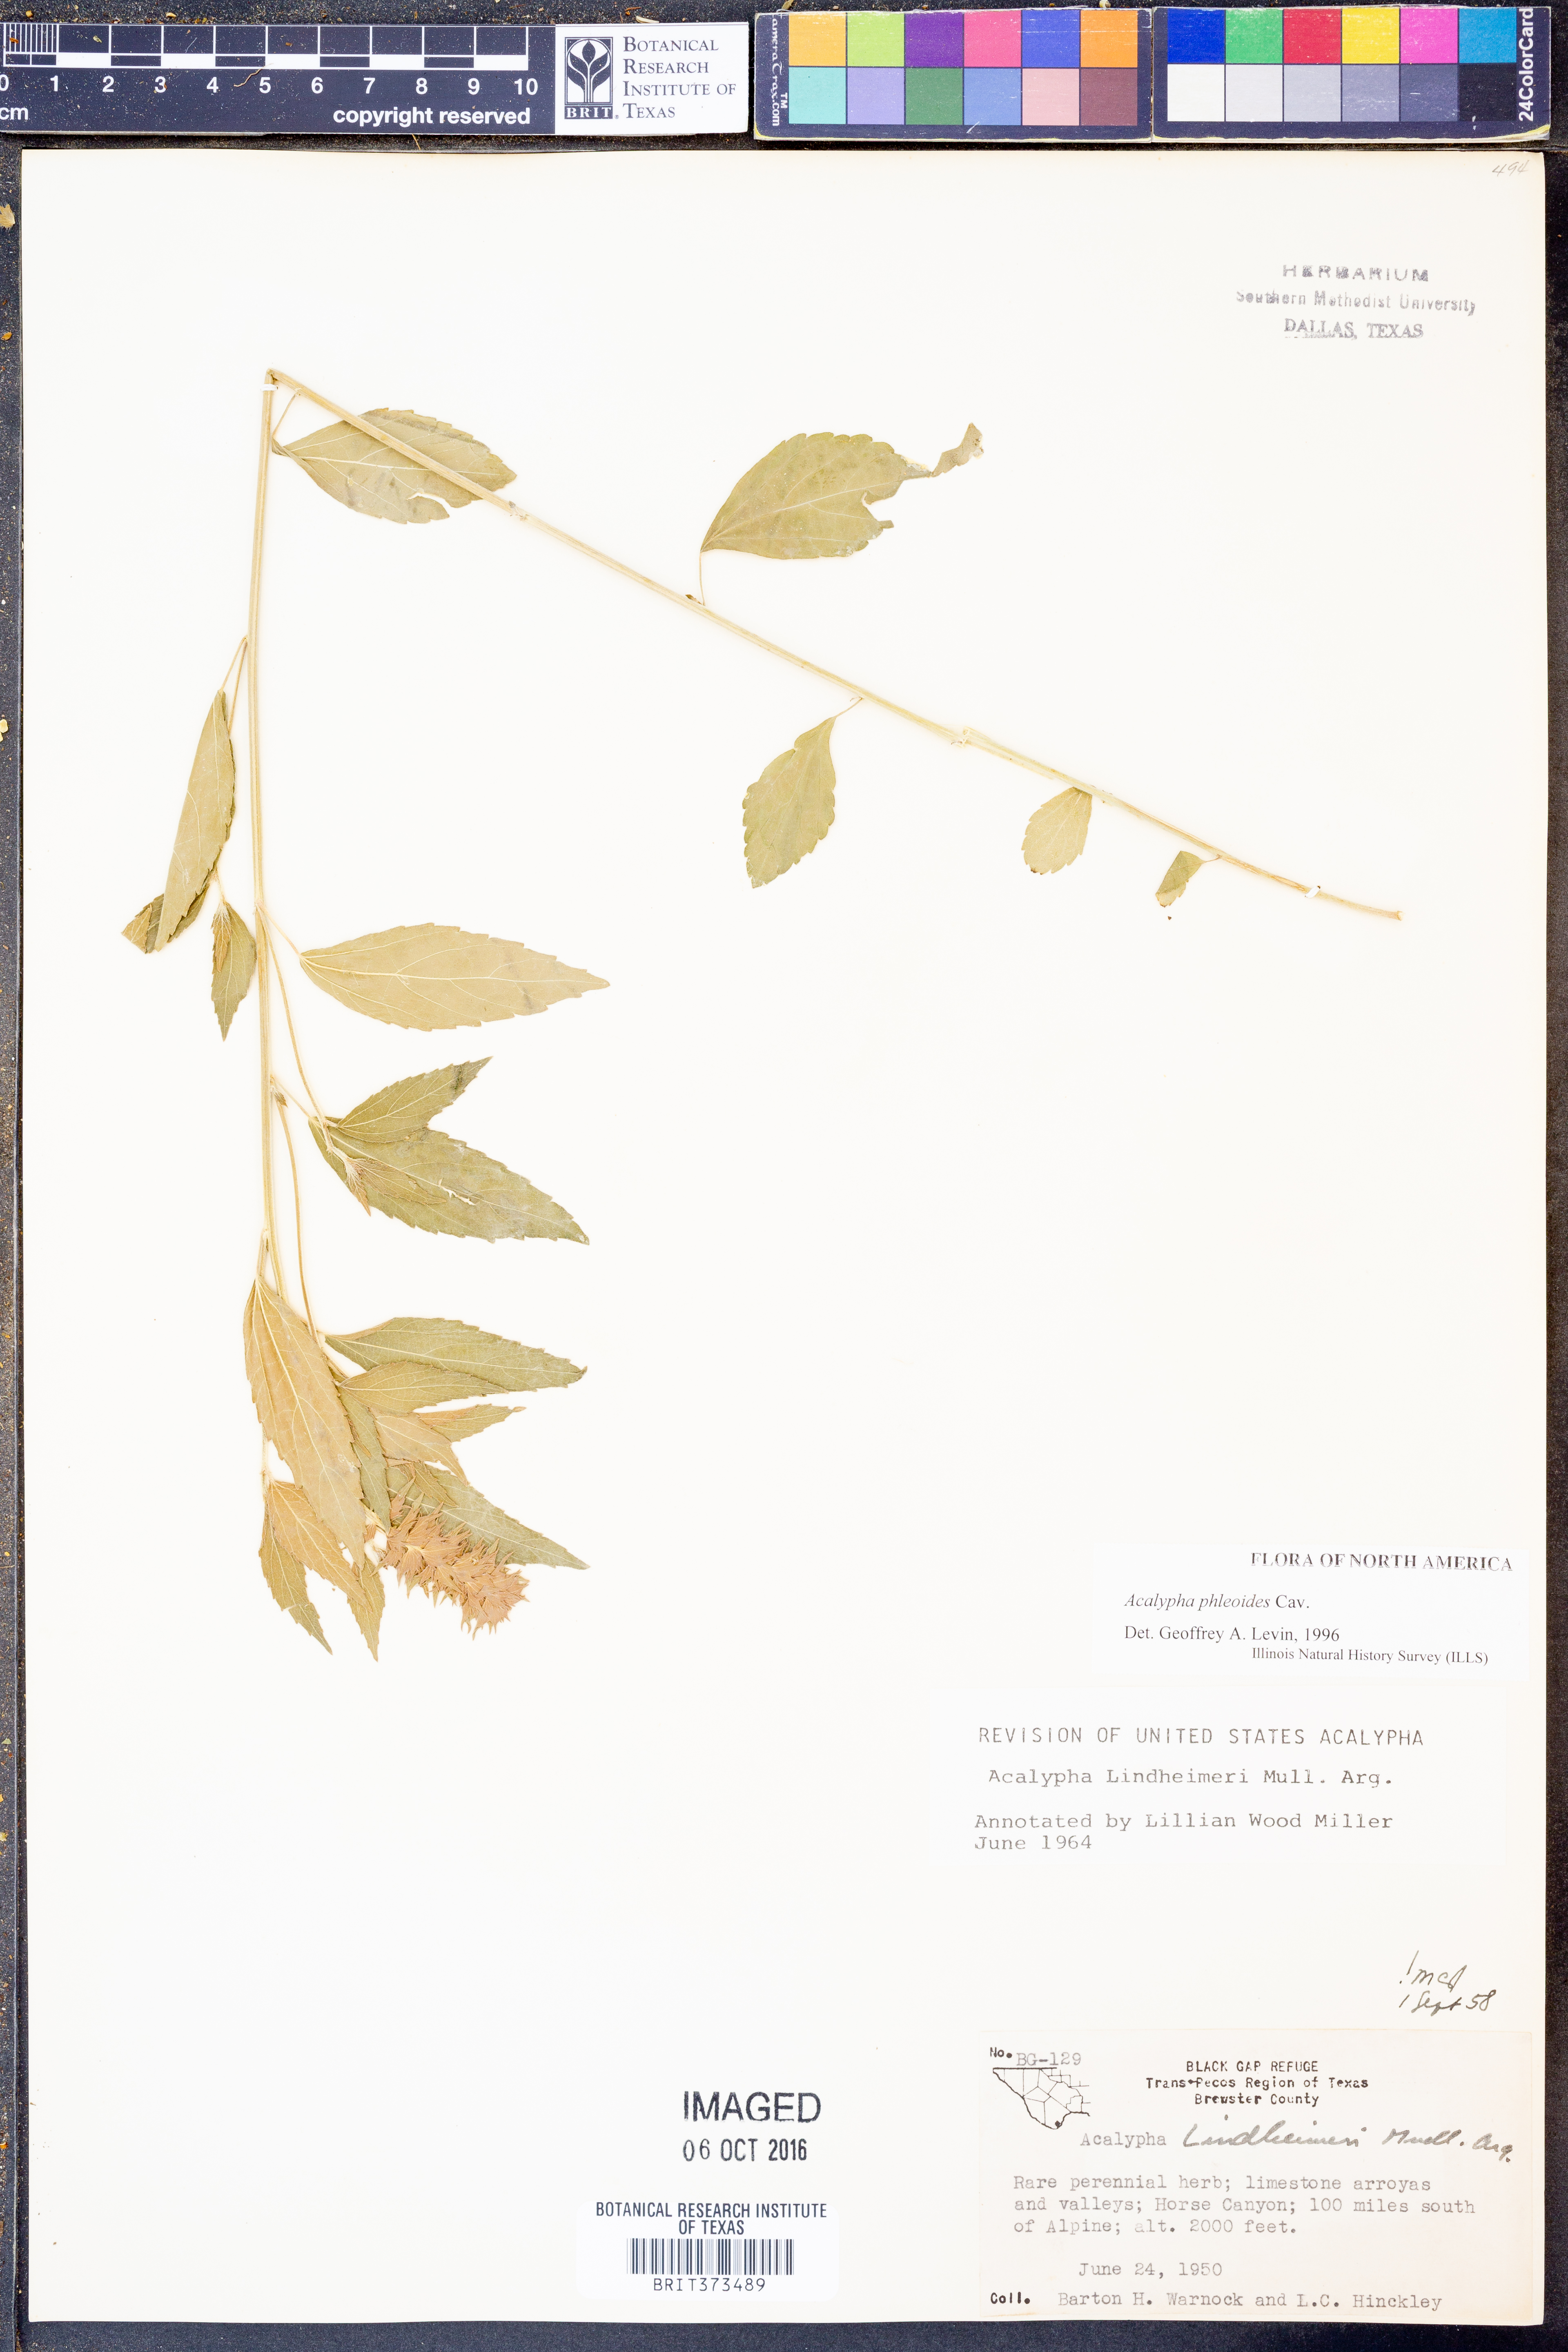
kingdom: Plantae
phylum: Tracheophyta
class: Magnoliopsida
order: Malpighiales
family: Euphorbiaceae
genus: Acalypha
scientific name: Acalypha phleoides
